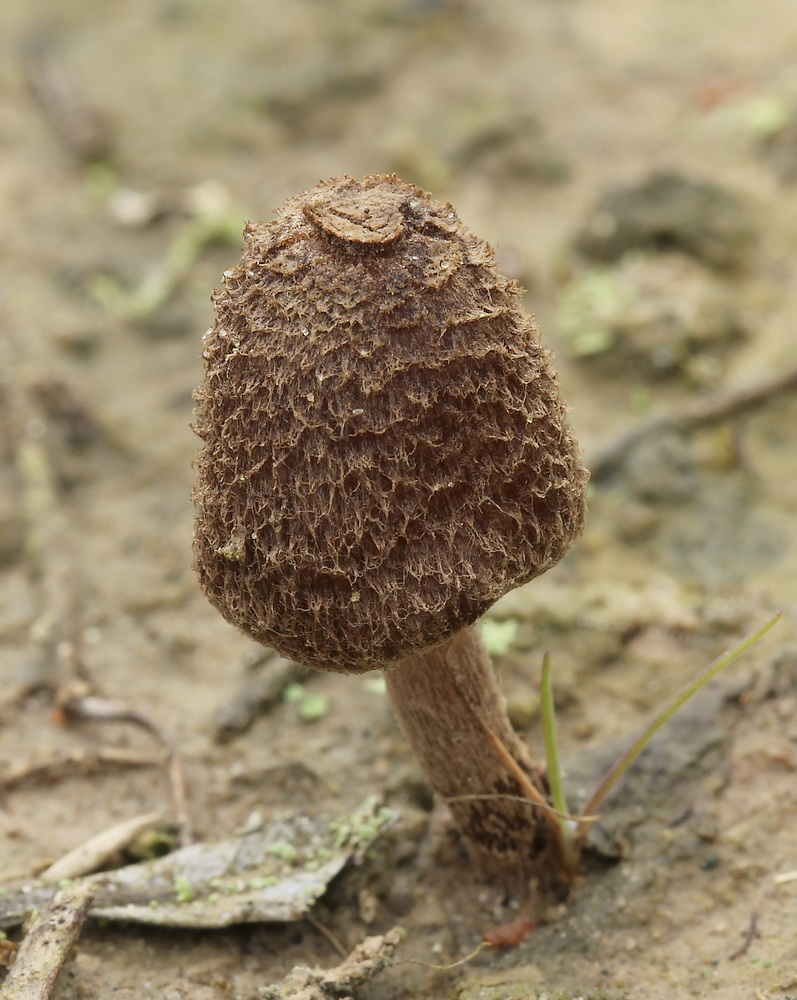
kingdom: Fungi
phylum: Basidiomycota
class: Agaricomycetes
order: Agaricales
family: Inocybaceae
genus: Inocybe
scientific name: Inocybe lacera
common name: laset trævlhat
